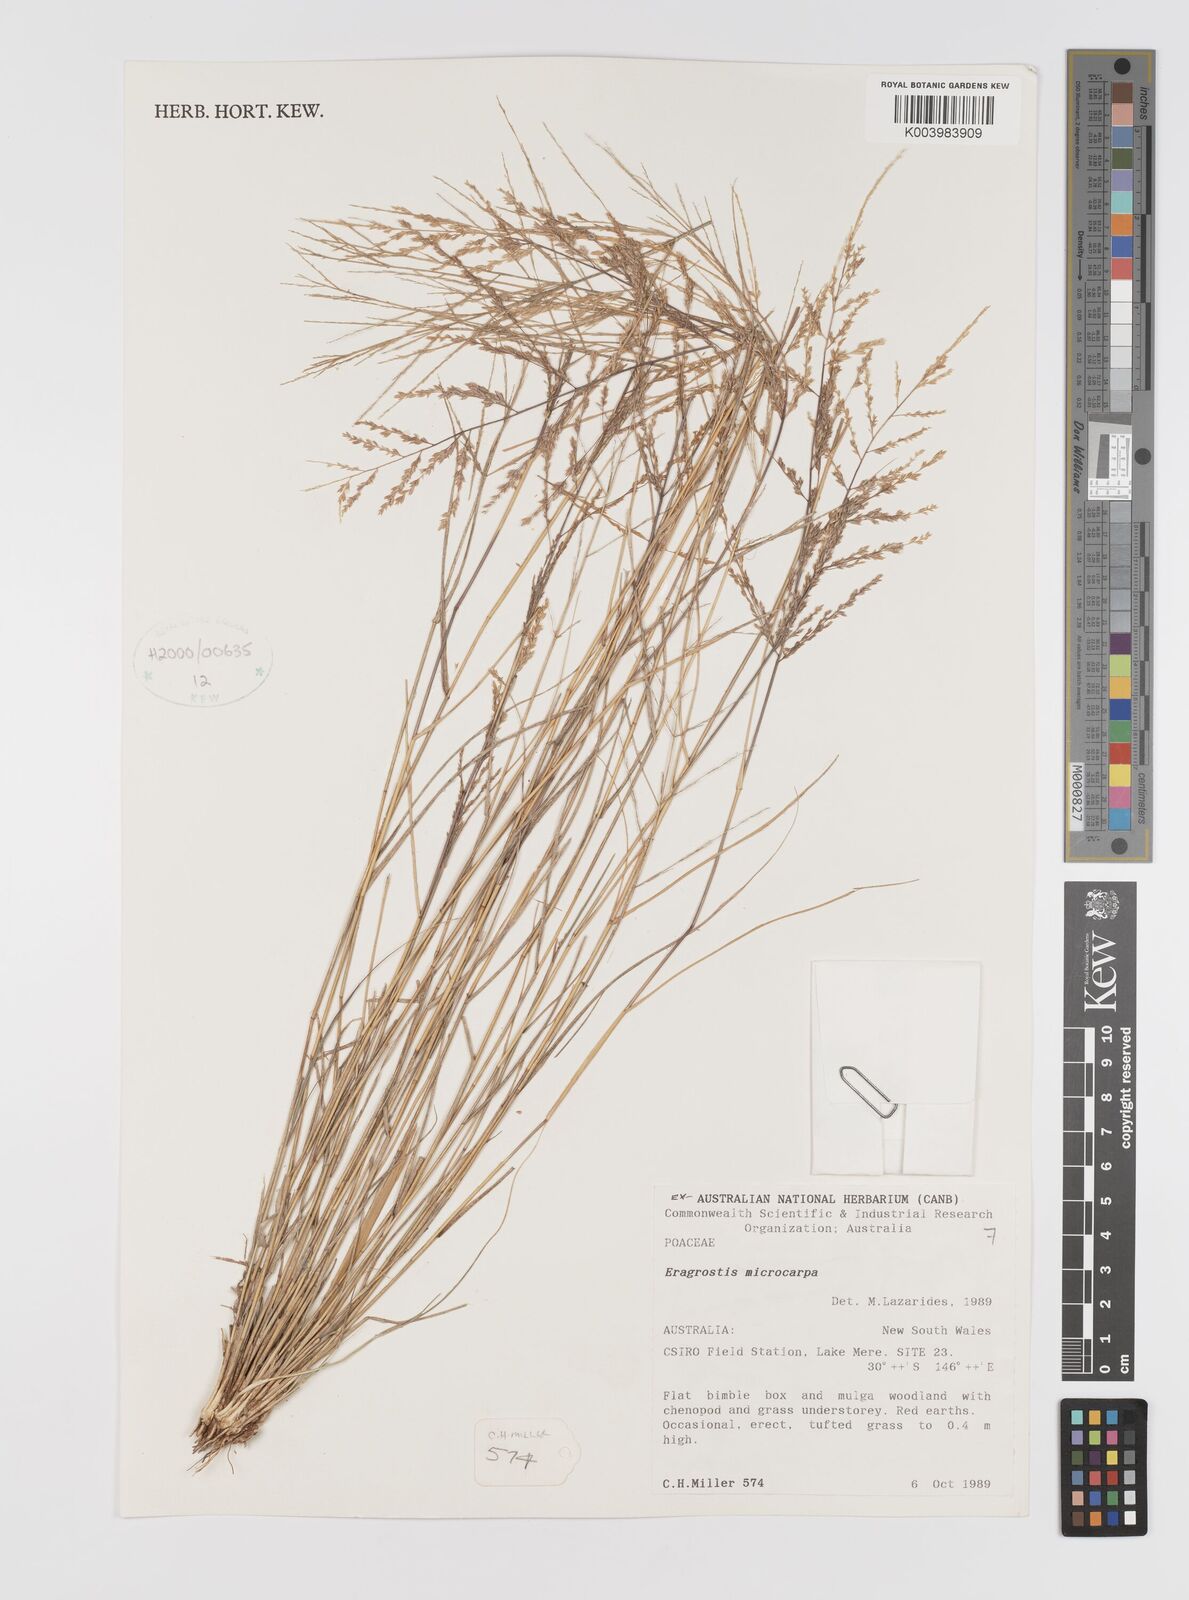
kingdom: Plantae
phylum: Tracheophyta
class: Liliopsida
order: Poales
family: Poaceae
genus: Eragrostis
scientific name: Eragrostis microcarpa
